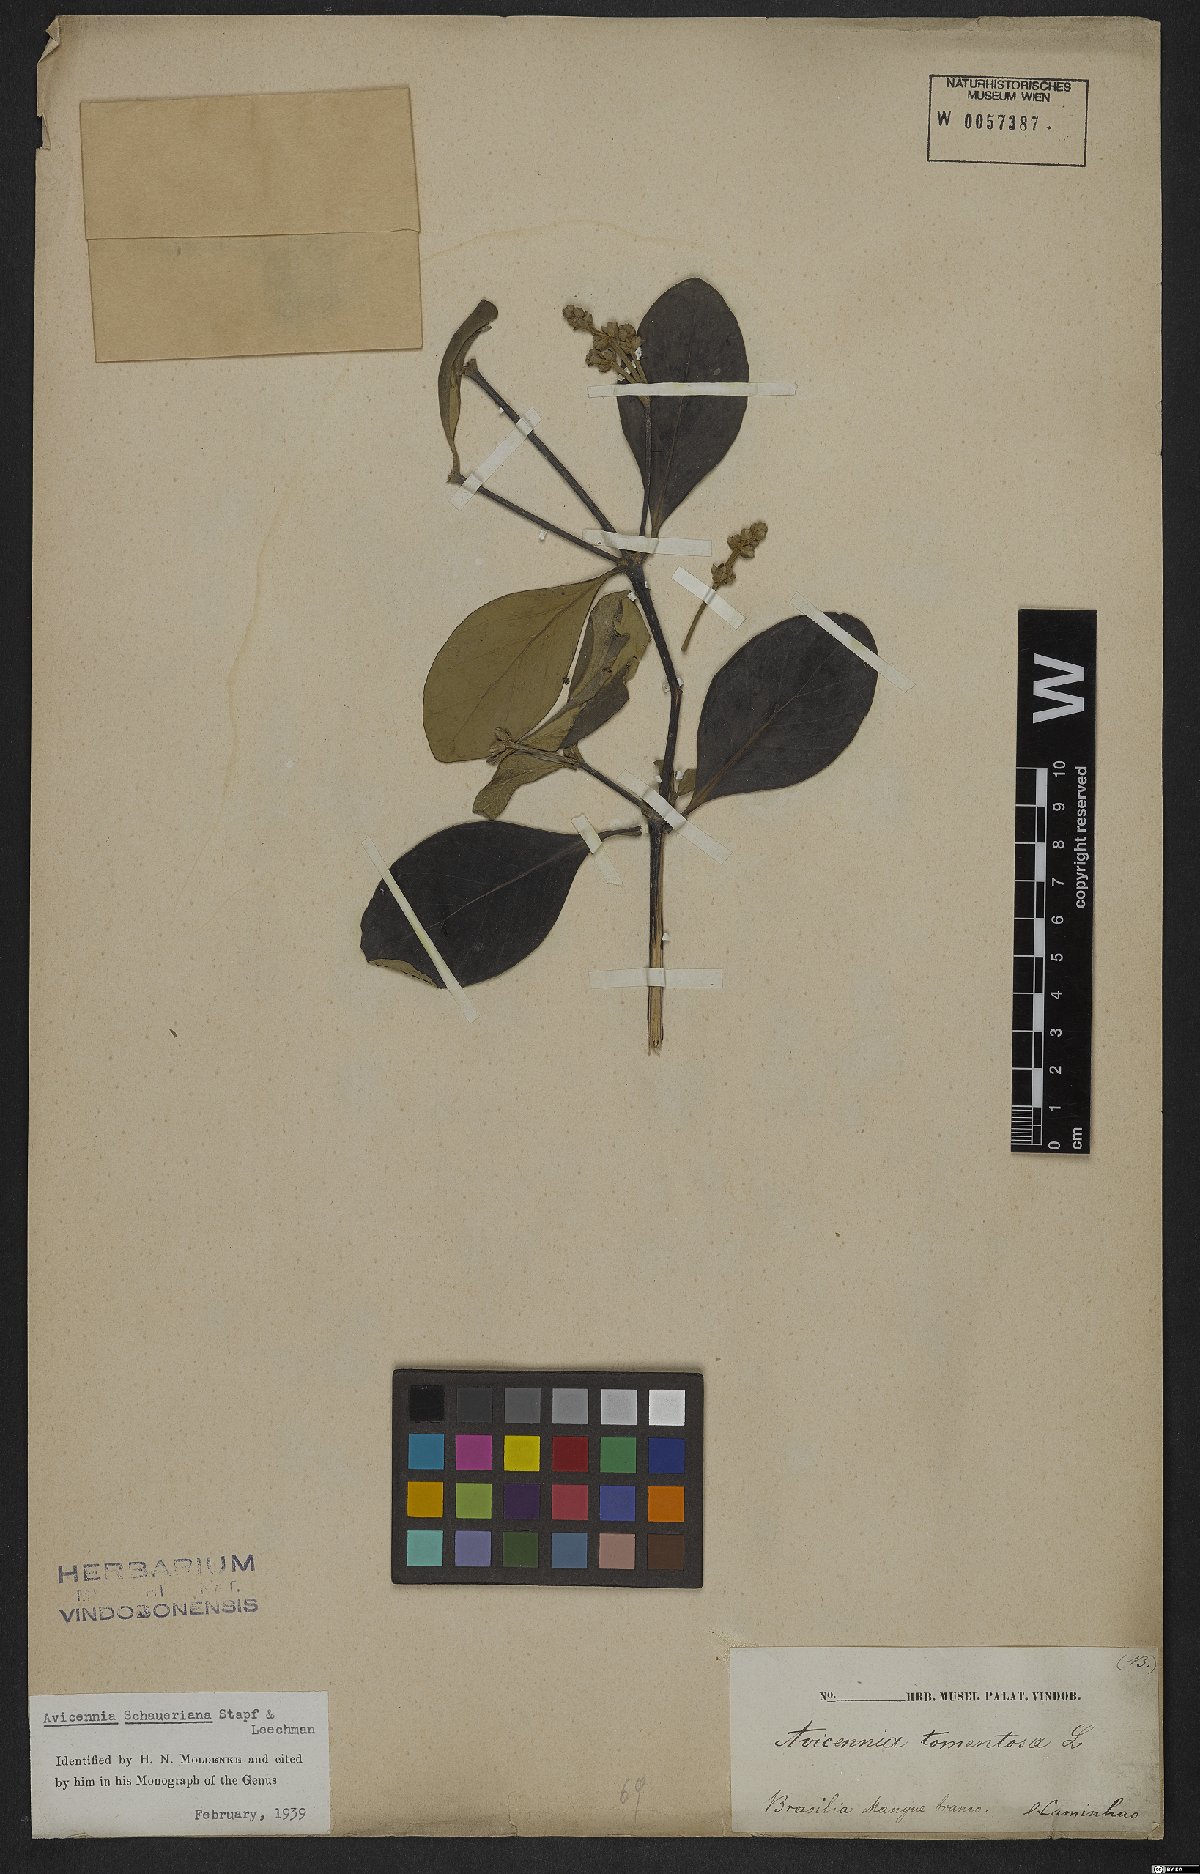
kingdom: Plantae
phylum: Tracheophyta
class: Magnoliopsida
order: Lamiales
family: Acanthaceae
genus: Avicennia
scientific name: Avicennia schaueriana
